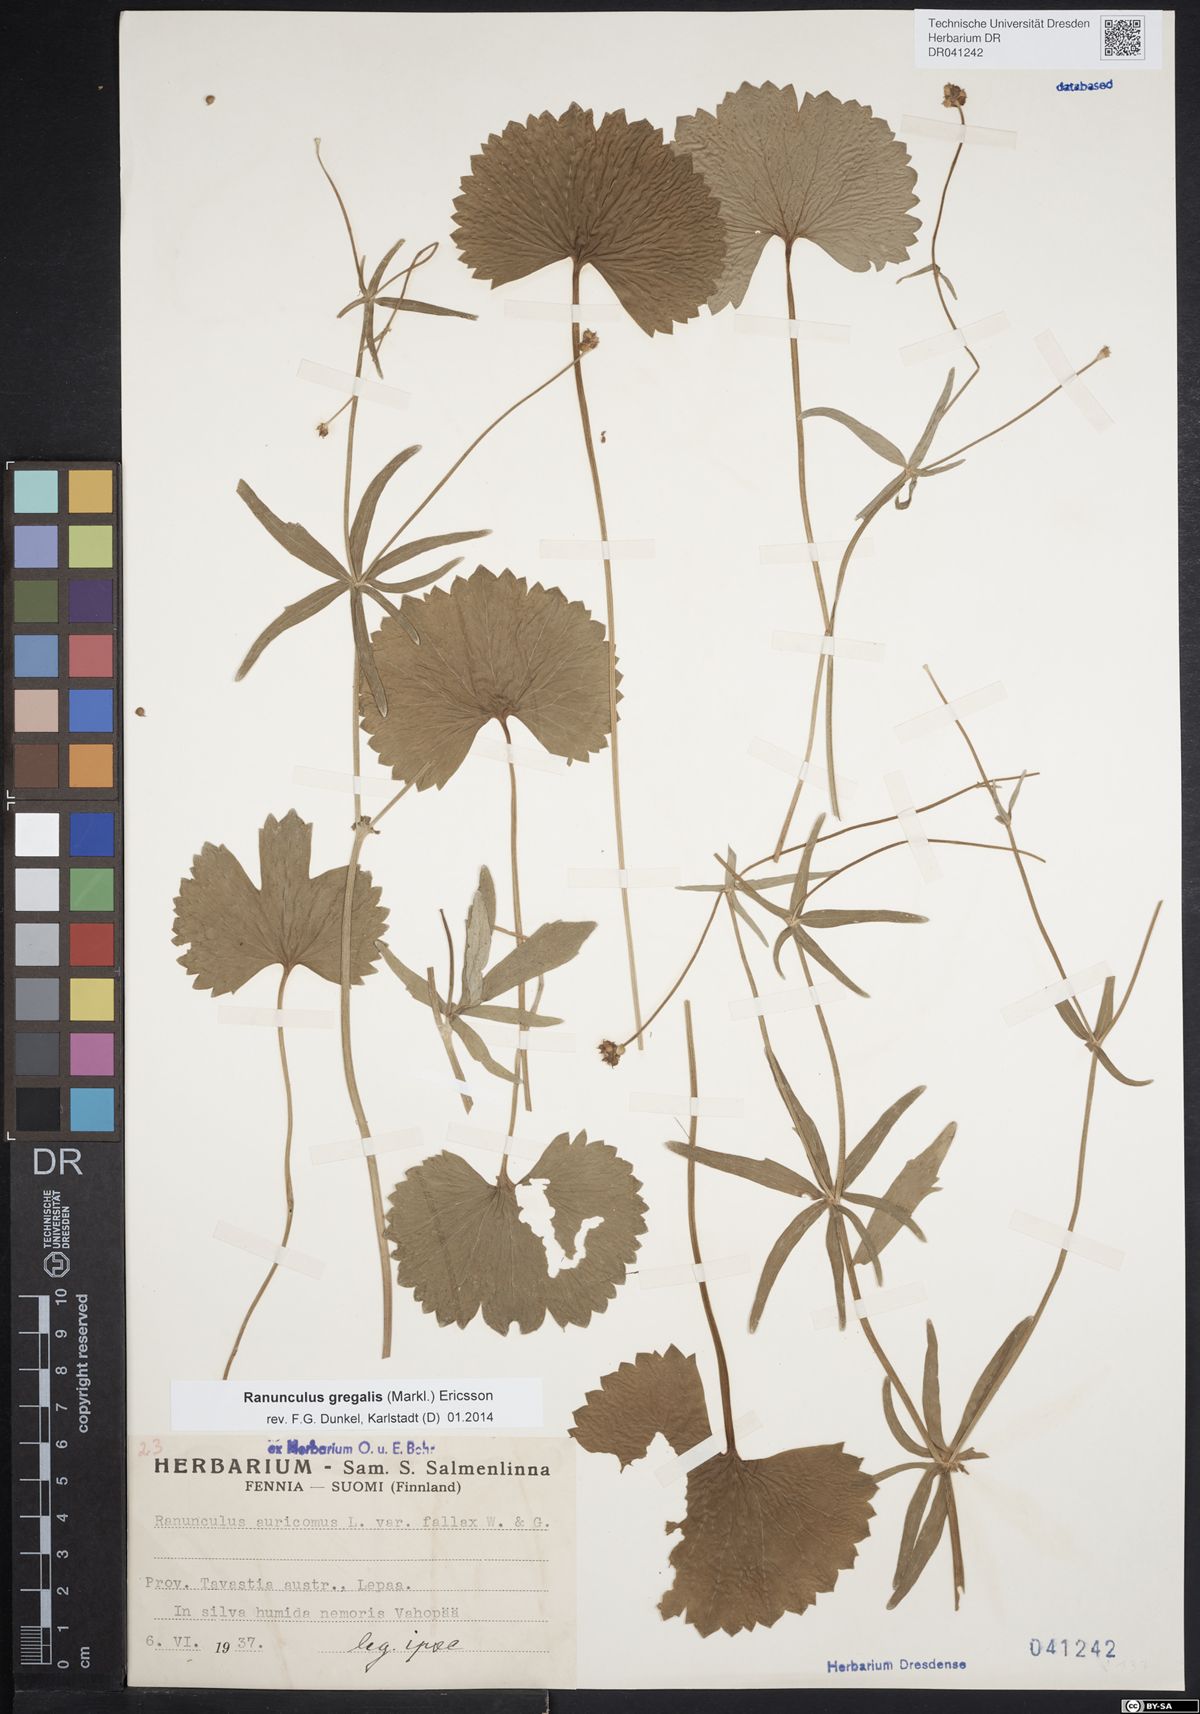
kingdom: Plantae
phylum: Tracheophyta
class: Magnoliopsida
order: Ranunculales
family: Ranunculaceae
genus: Ranunculus
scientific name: Ranunculus gregalis
